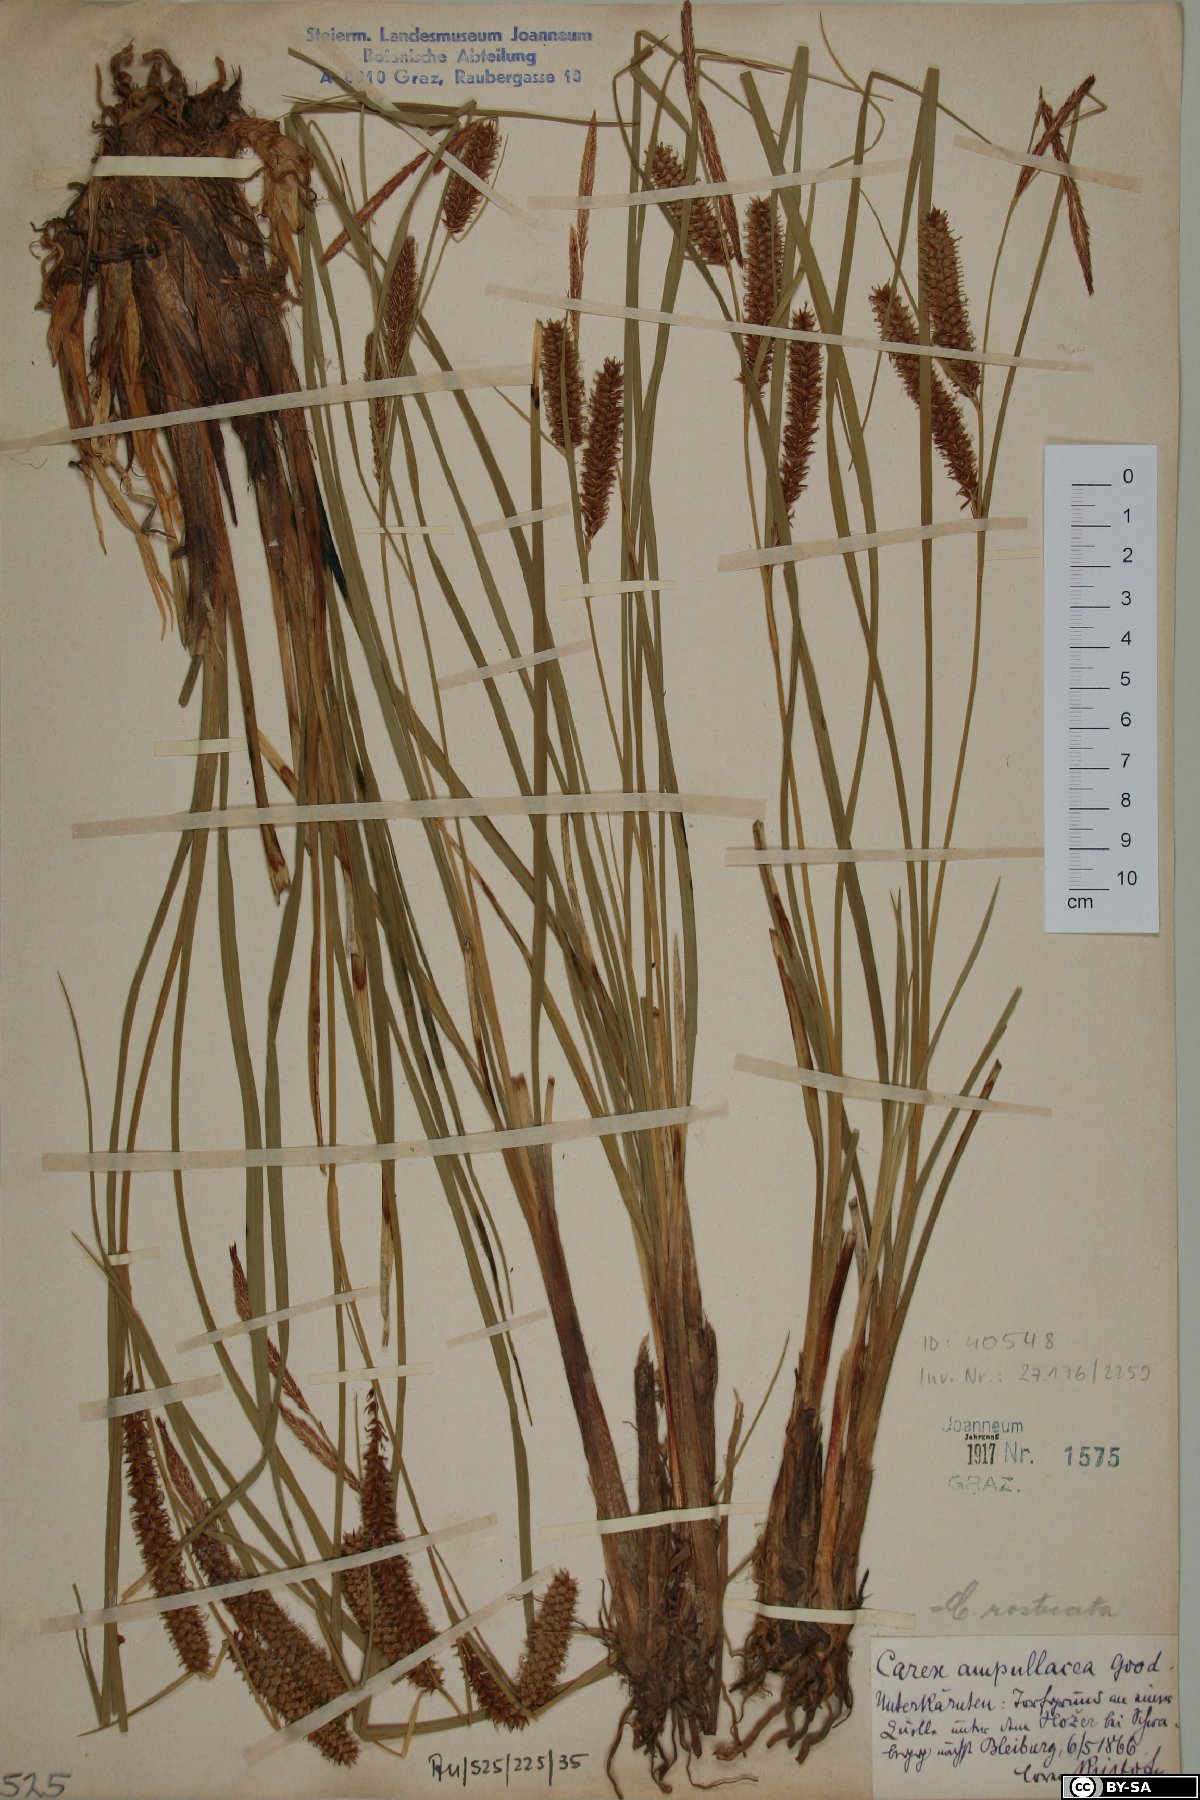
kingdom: Plantae
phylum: Tracheophyta
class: Liliopsida
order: Poales
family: Cyperaceae
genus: Carex
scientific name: Carex rostrata
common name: Bottle sedge
